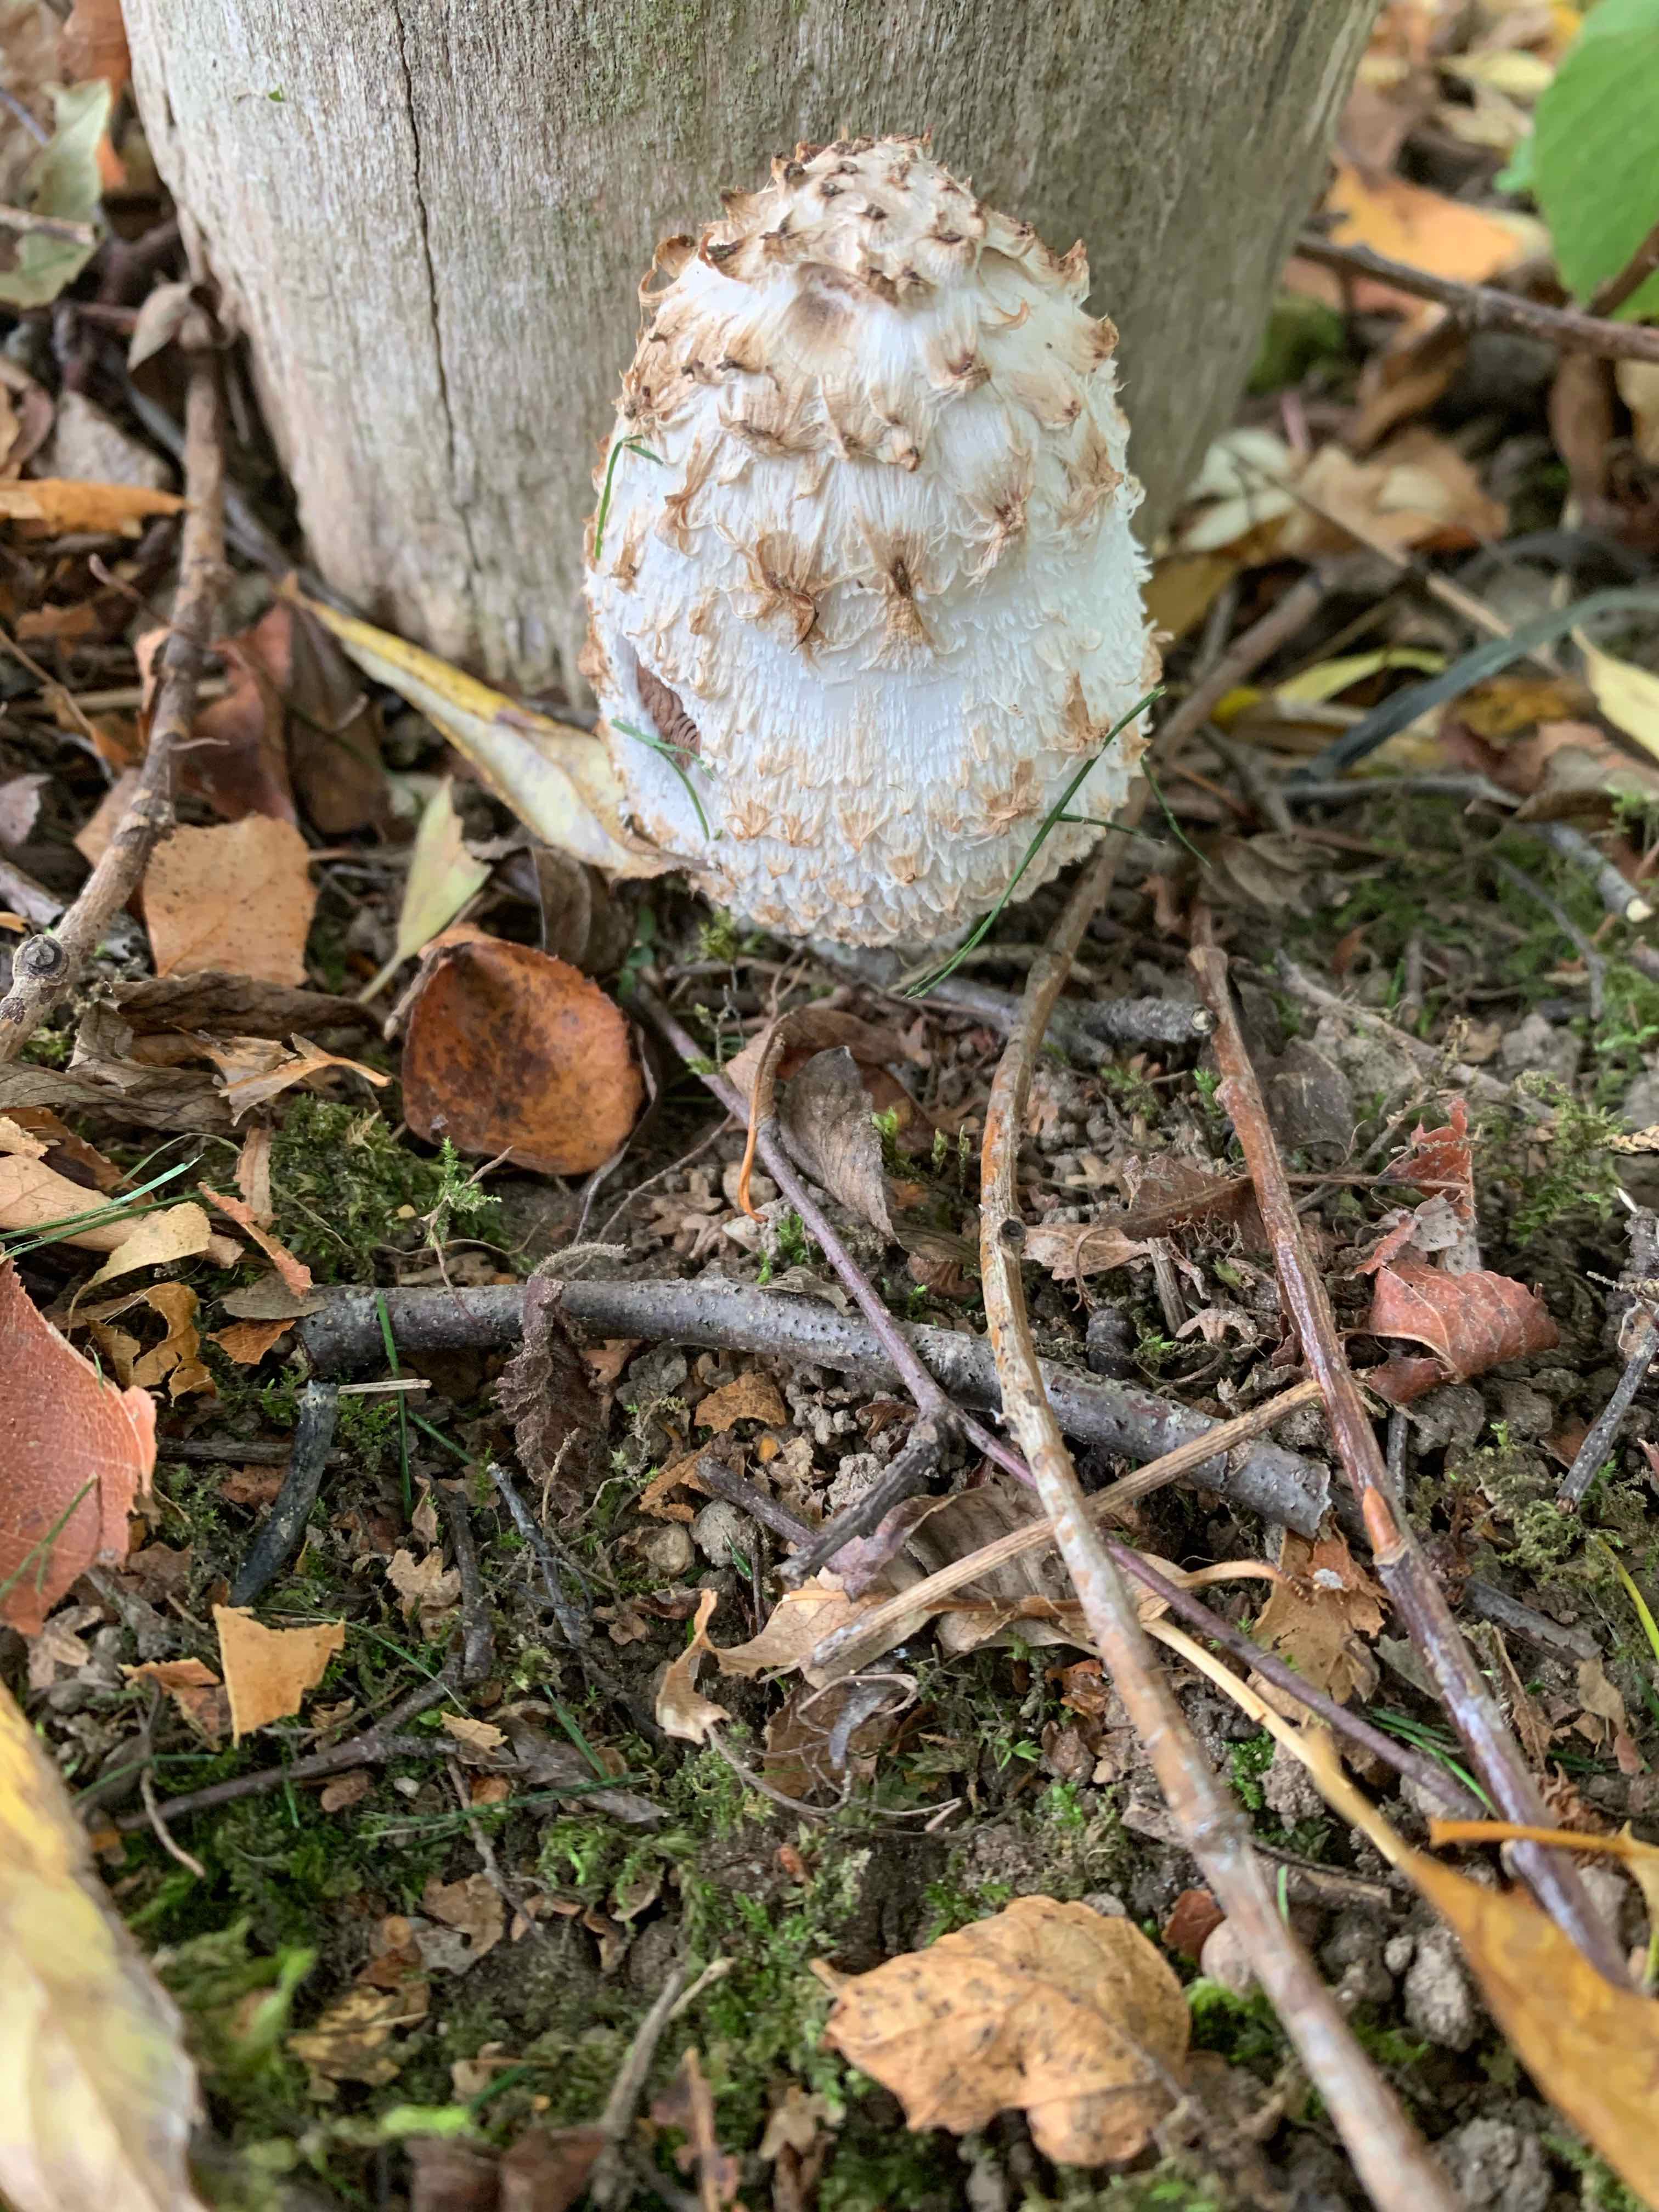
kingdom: Fungi
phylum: Basidiomycota
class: Agaricomycetes
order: Agaricales
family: Agaricaceae
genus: Coprinus
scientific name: Coprinus comatus
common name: stor parykhat
